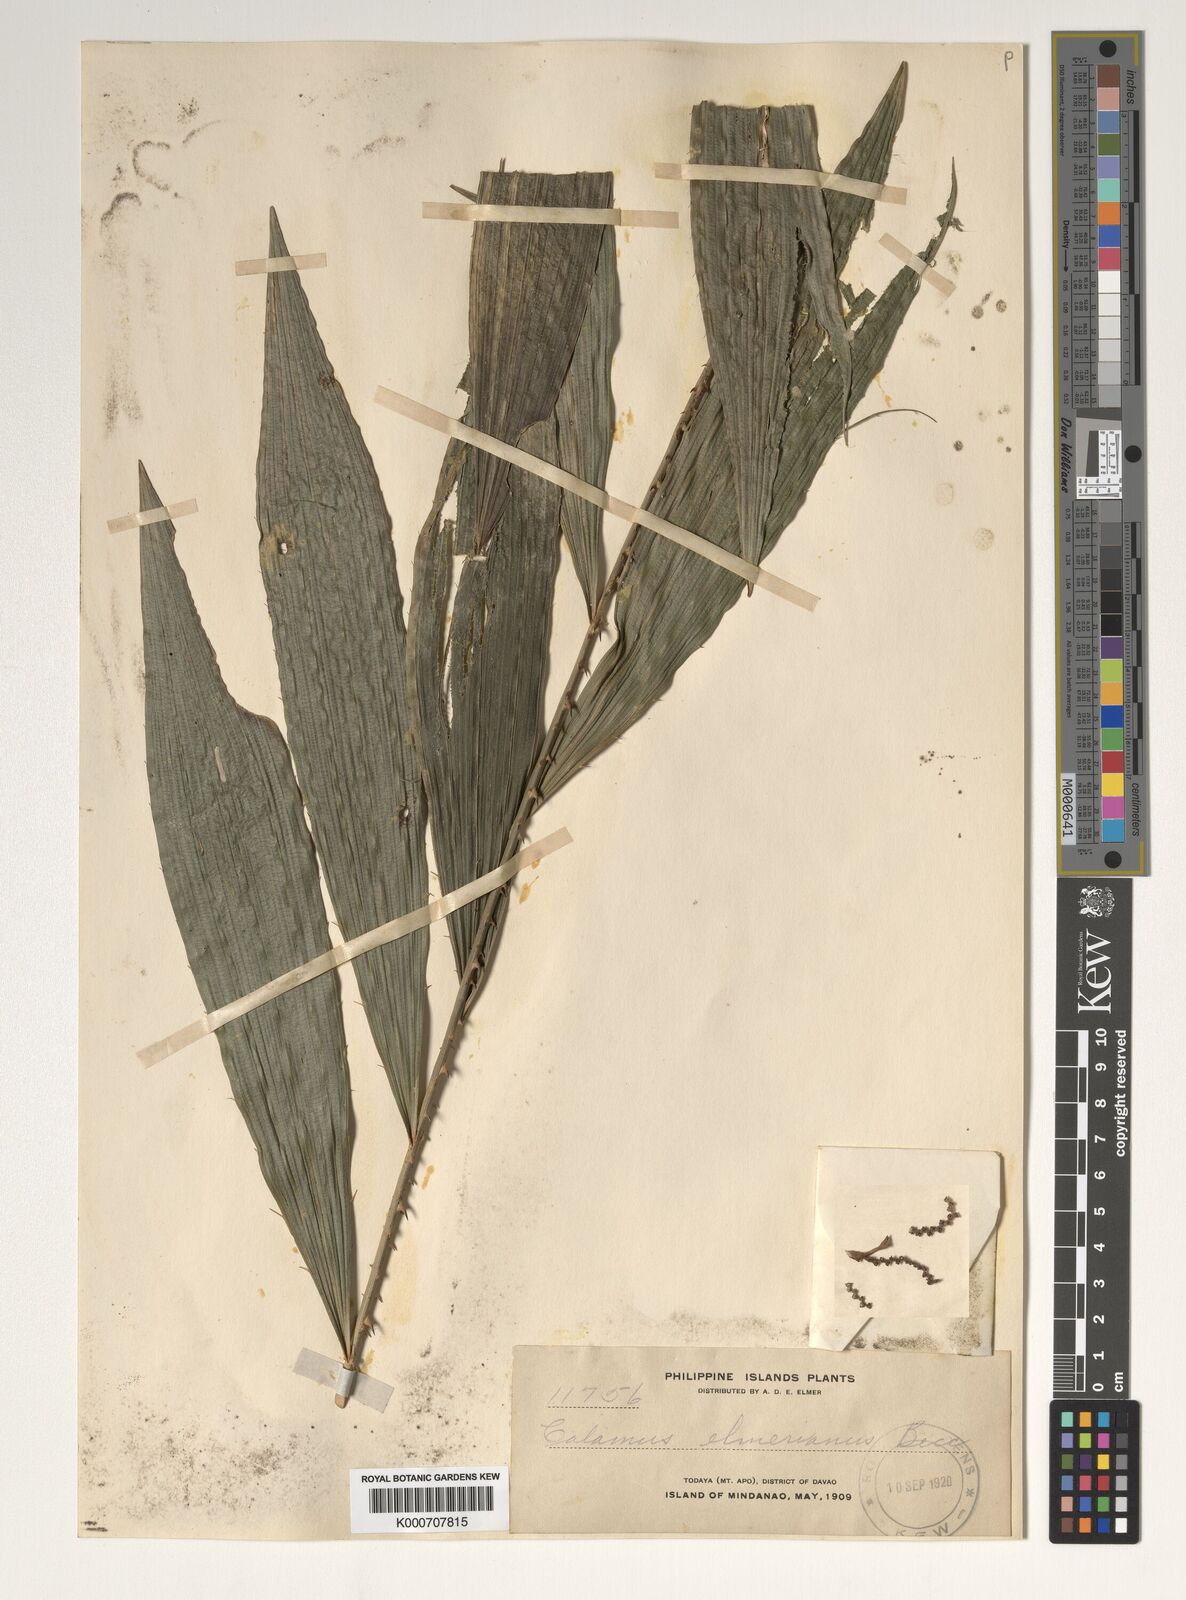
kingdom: Plantae
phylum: Tracheophyta
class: Liliopsida
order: Arecales
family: Arecaceae
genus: Calamus
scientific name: Calamus mitis
